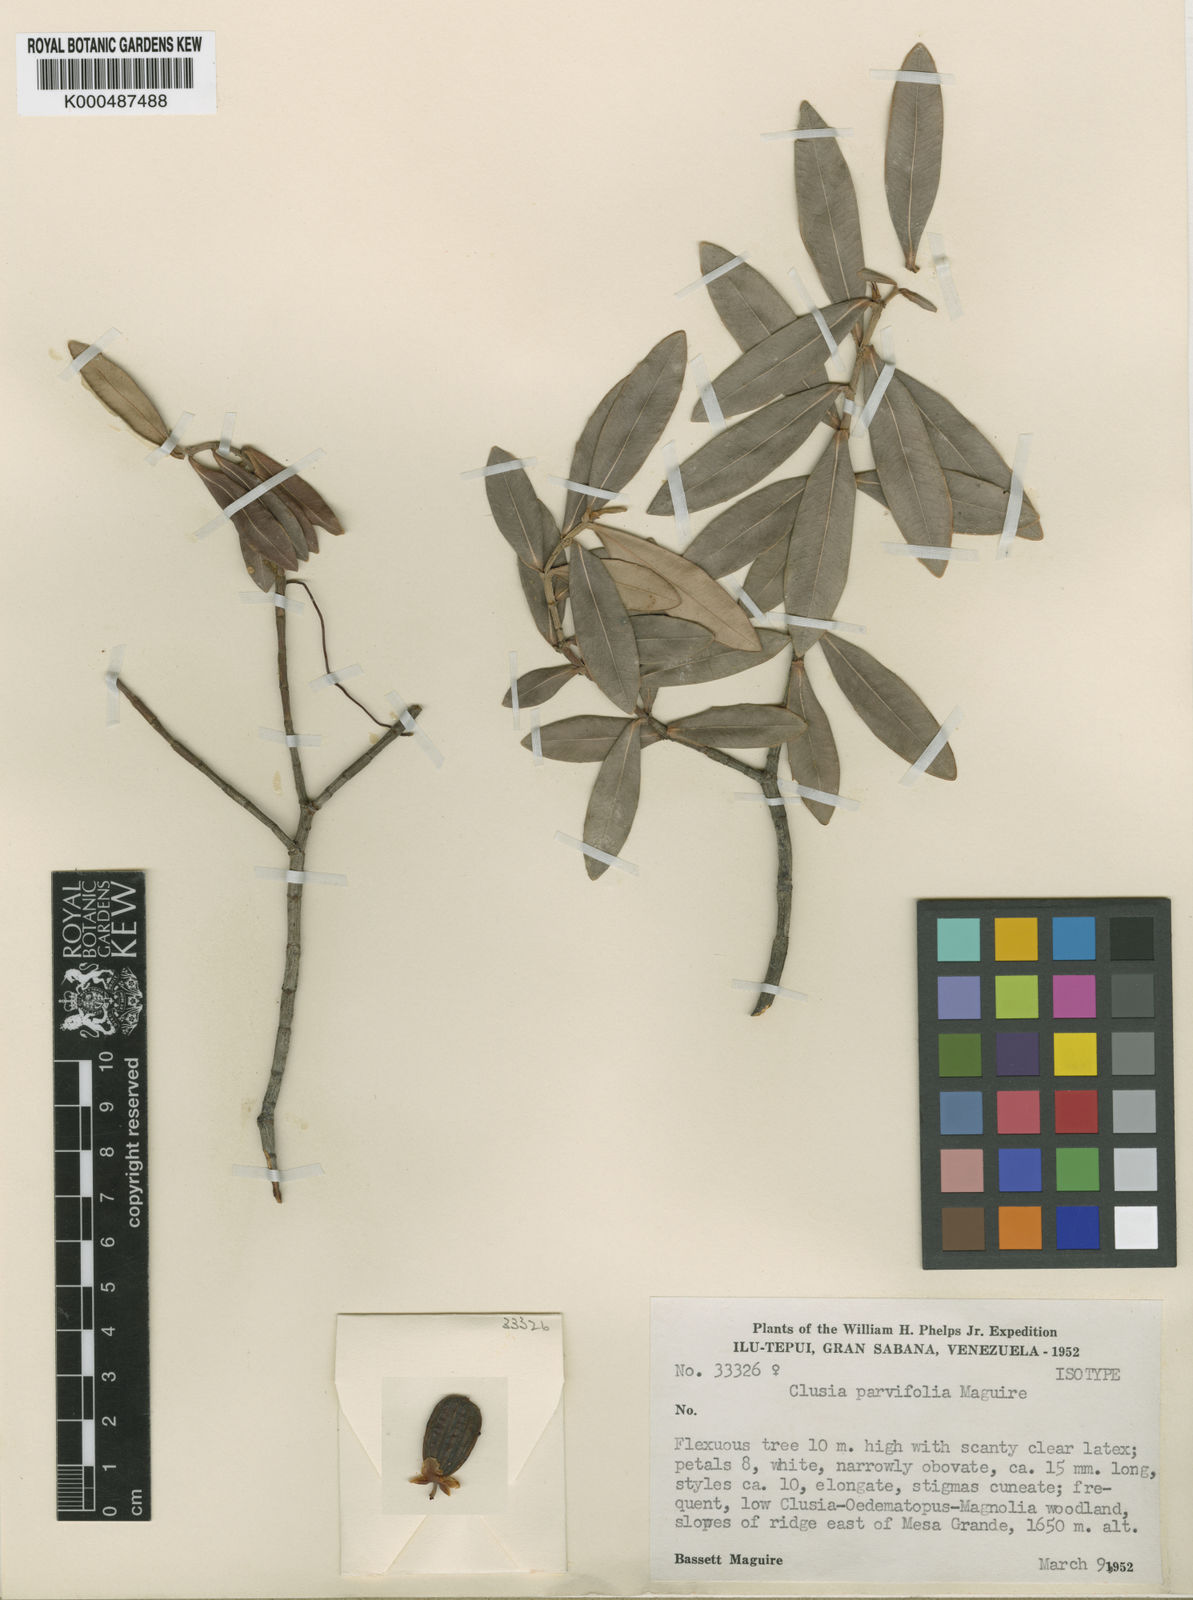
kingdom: Plantae
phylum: Tracheophyta
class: Magnoliopsida
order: Malpighiales
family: Clusiaceae
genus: Clusia
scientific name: Clusia parvifolia
